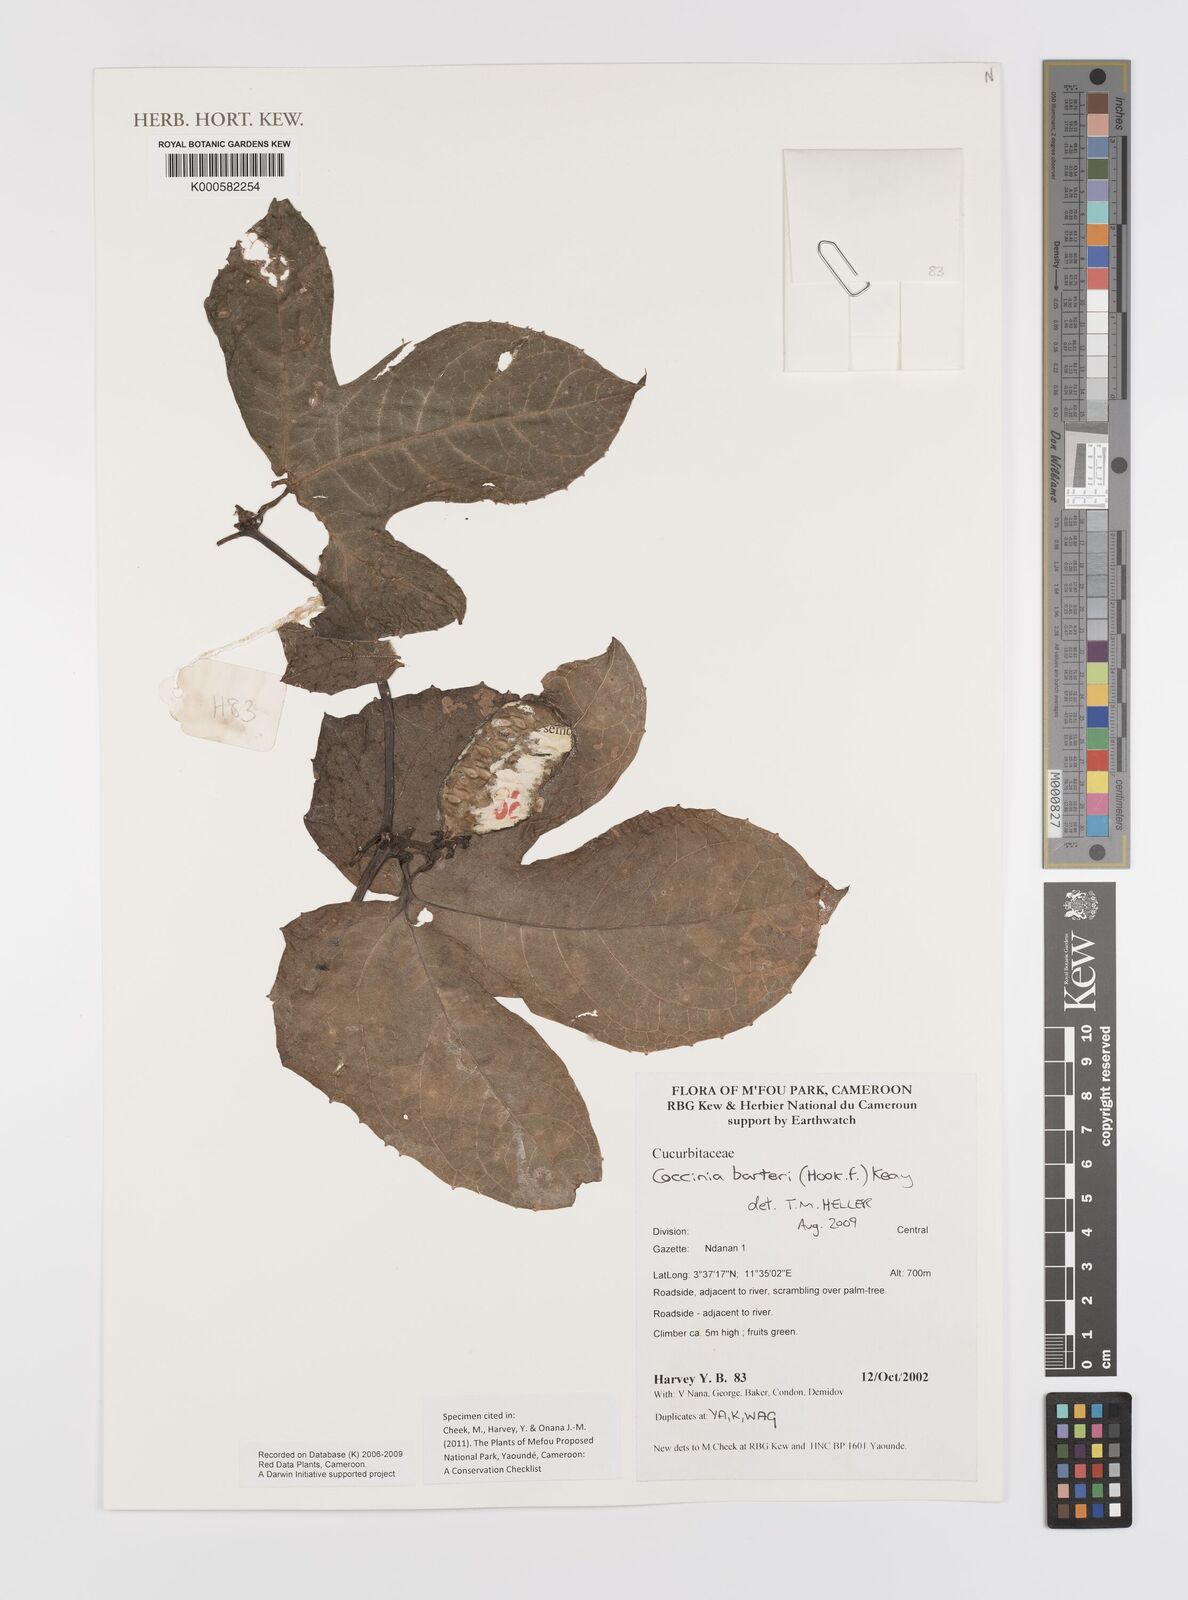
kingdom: Plantae
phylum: Tracheophyta
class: Magnoliopsida
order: Cucurbitales
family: Cucurbitaceae
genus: Coccinia
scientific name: Coccinia barteri
